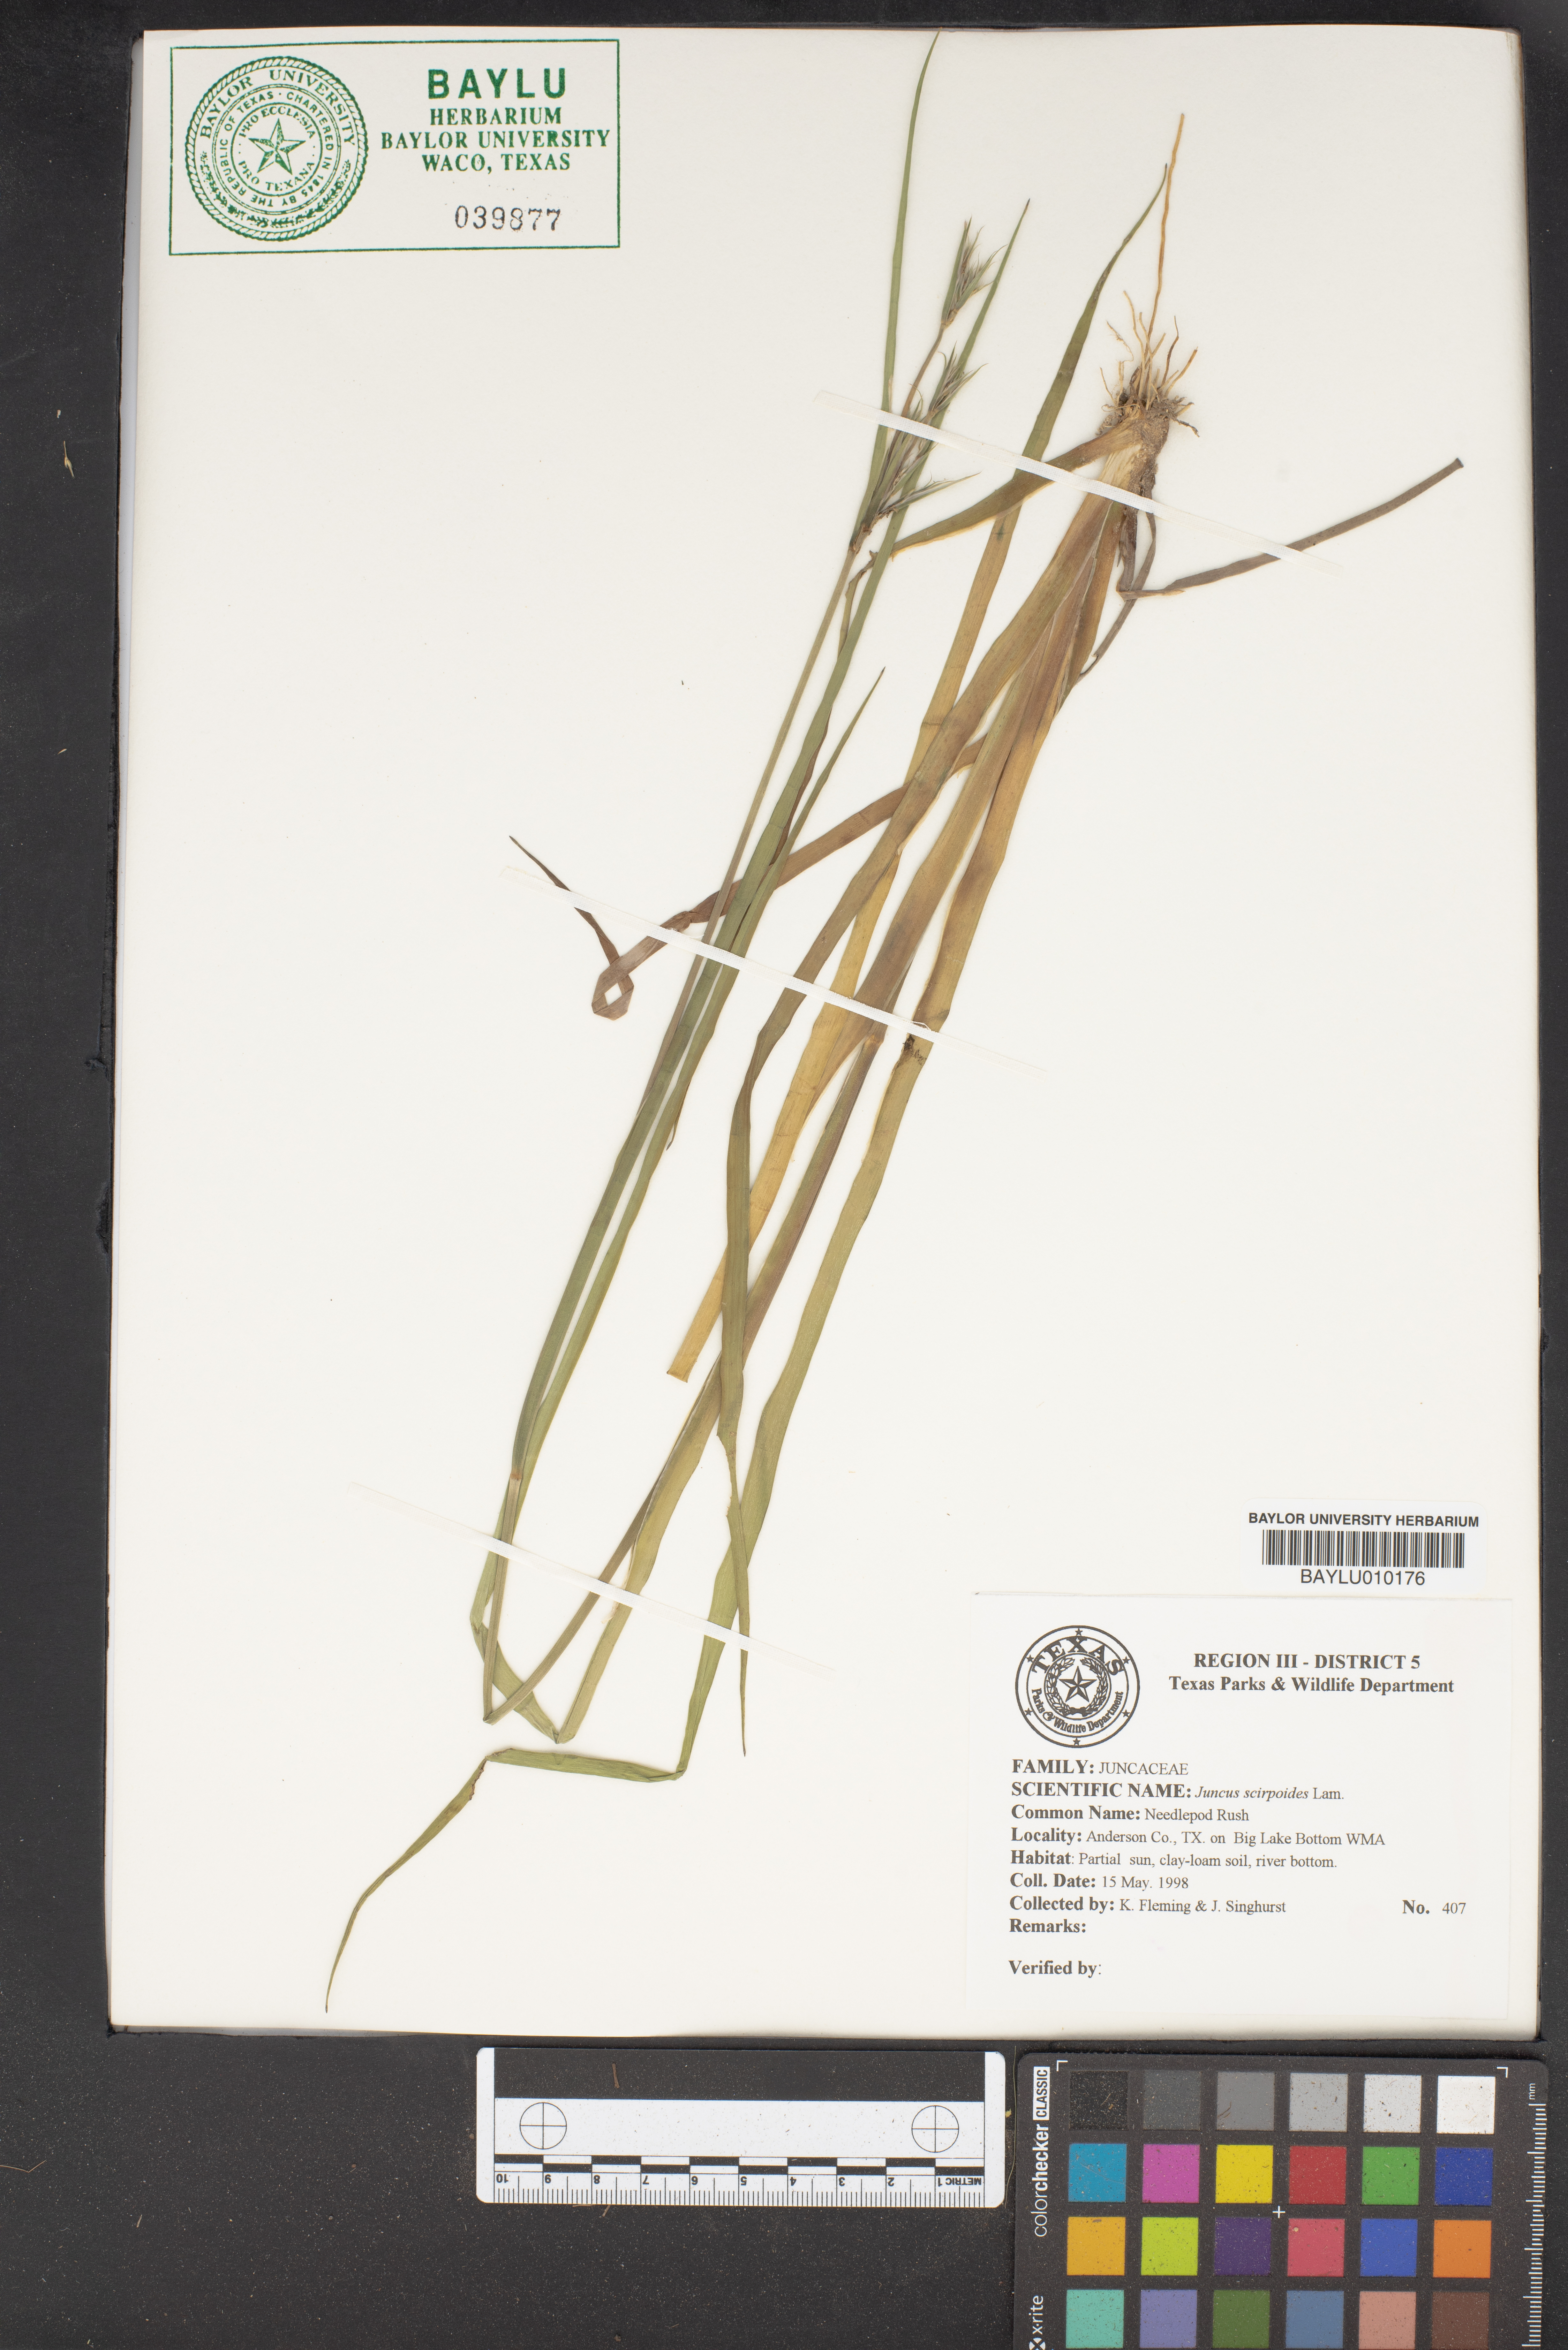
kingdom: Plantae
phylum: Tracheophyta
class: Liliopsida
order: Poales
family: Juncaceae
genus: Juncus
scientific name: Juncus scirpoides
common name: Needlepod rush
